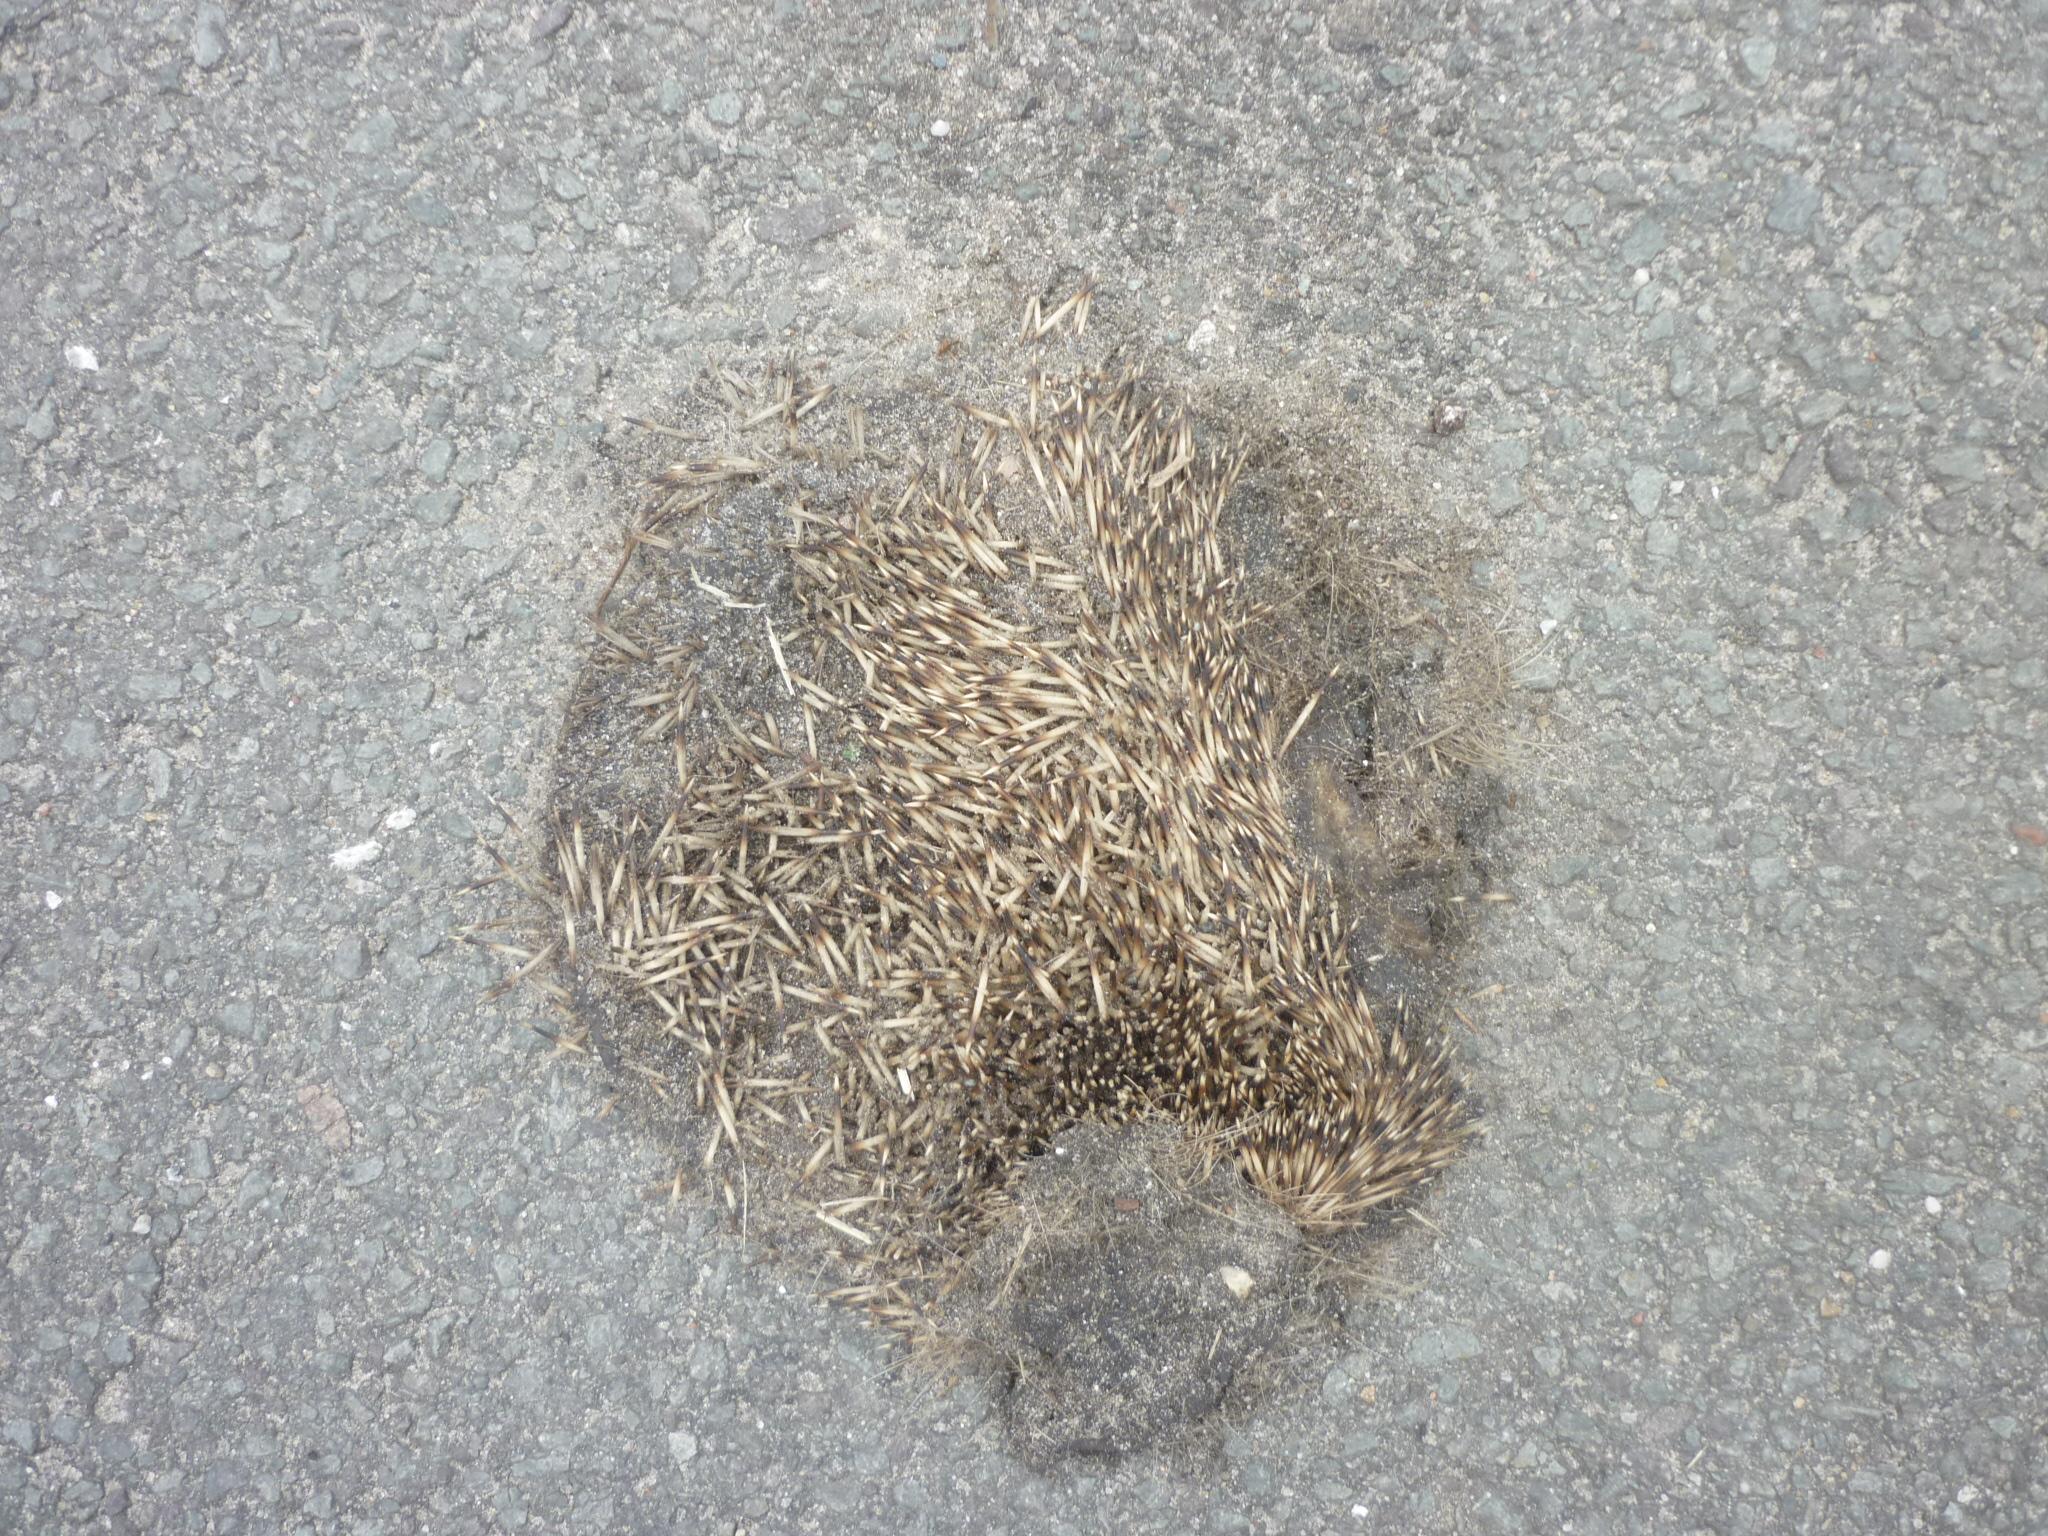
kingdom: Animalia
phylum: Chordata
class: Mammalia
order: Erinaceomorpha
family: Erinaceidae
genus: Erinaceus
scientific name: Erinaceus
